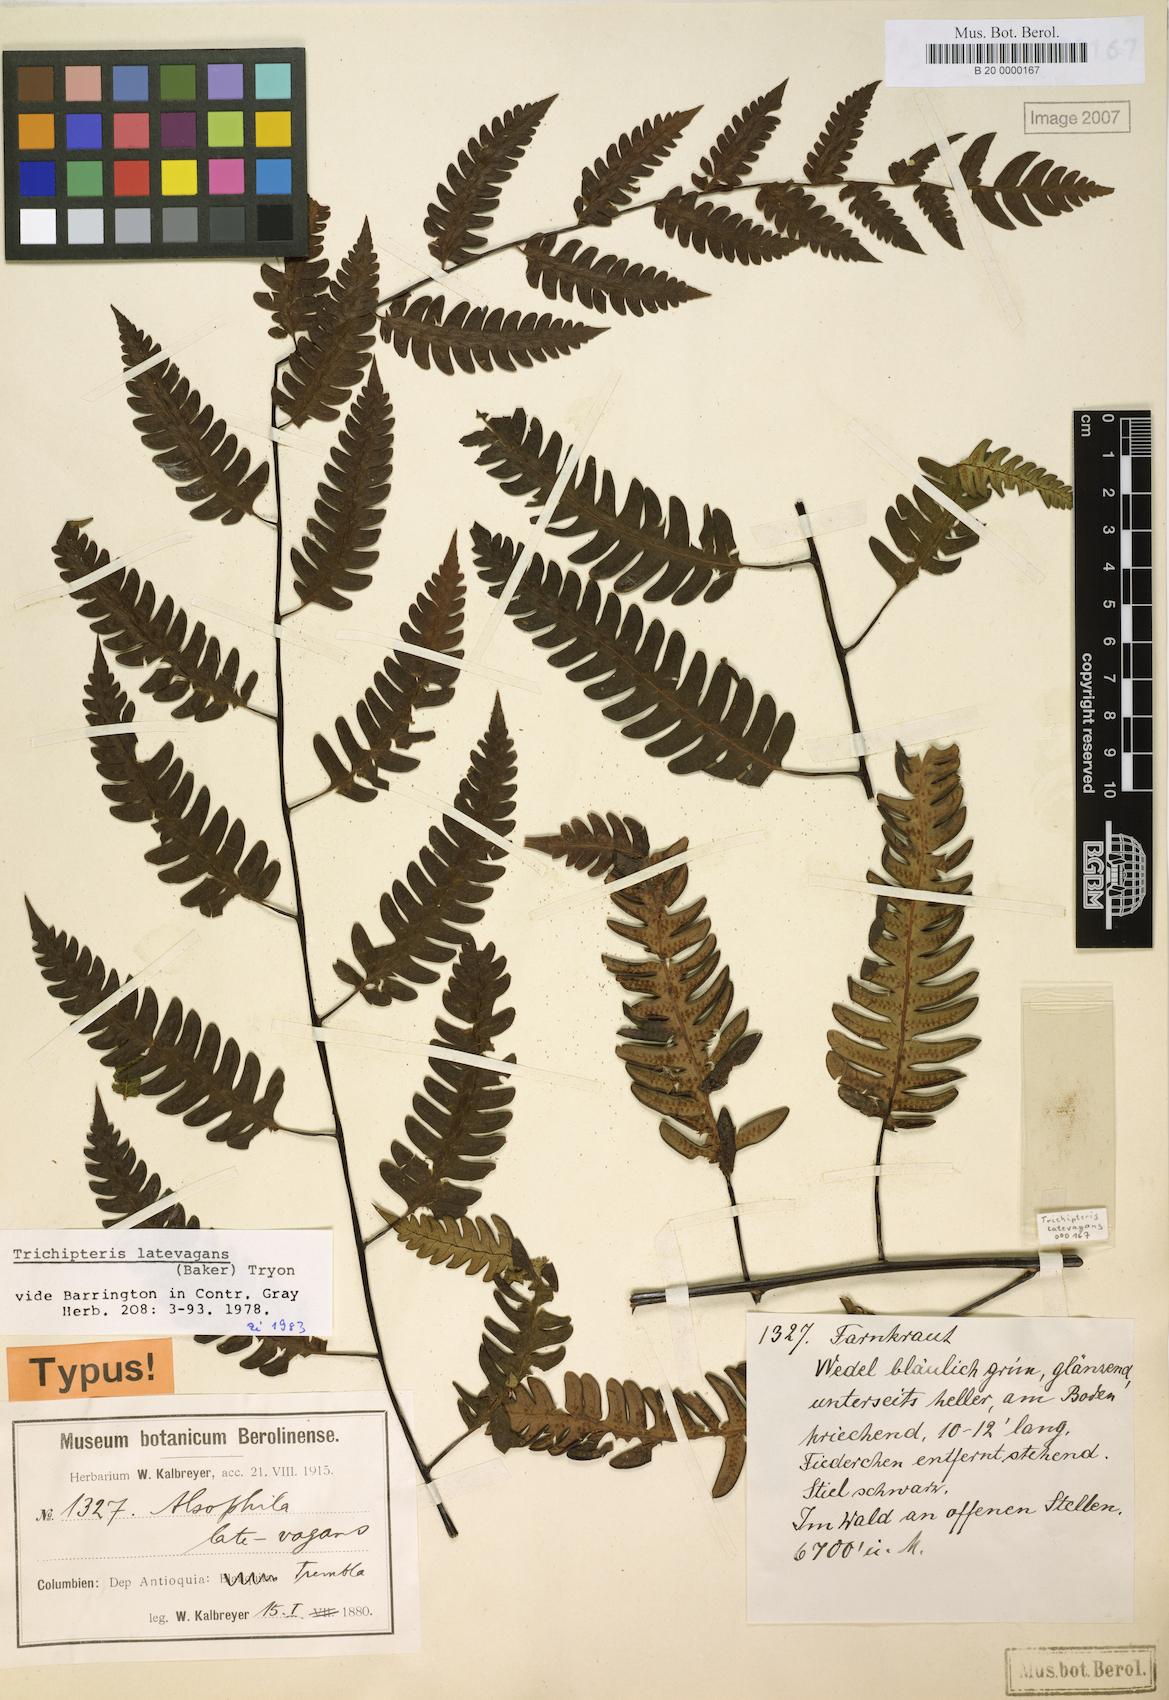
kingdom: Plantae
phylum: Tracheophyta
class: Polypodiopsida
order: Cyatheales
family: Cyatheaceae
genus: Cyathea
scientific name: Cyathea latevagans
